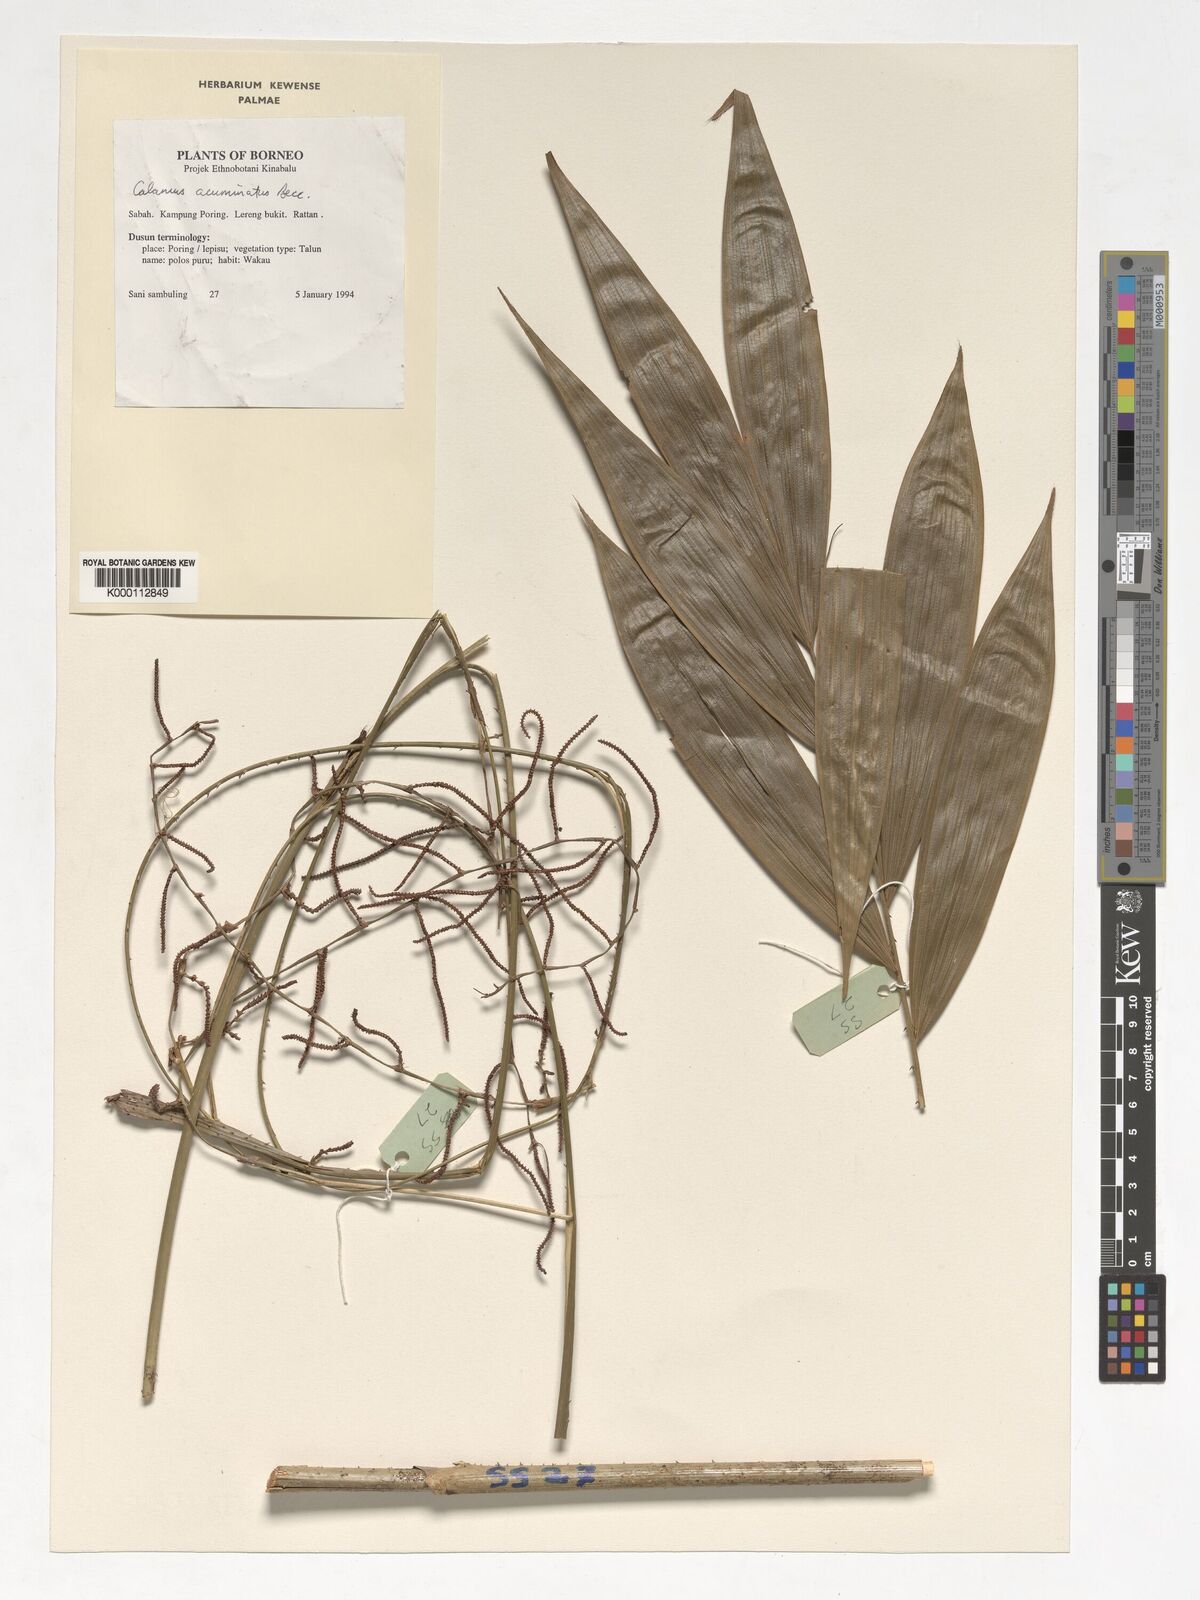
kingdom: Plantae
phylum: Tracheophyta
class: Liliopsida
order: Arecales
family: Arecaceae
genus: Calamus
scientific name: Calamus javensis
